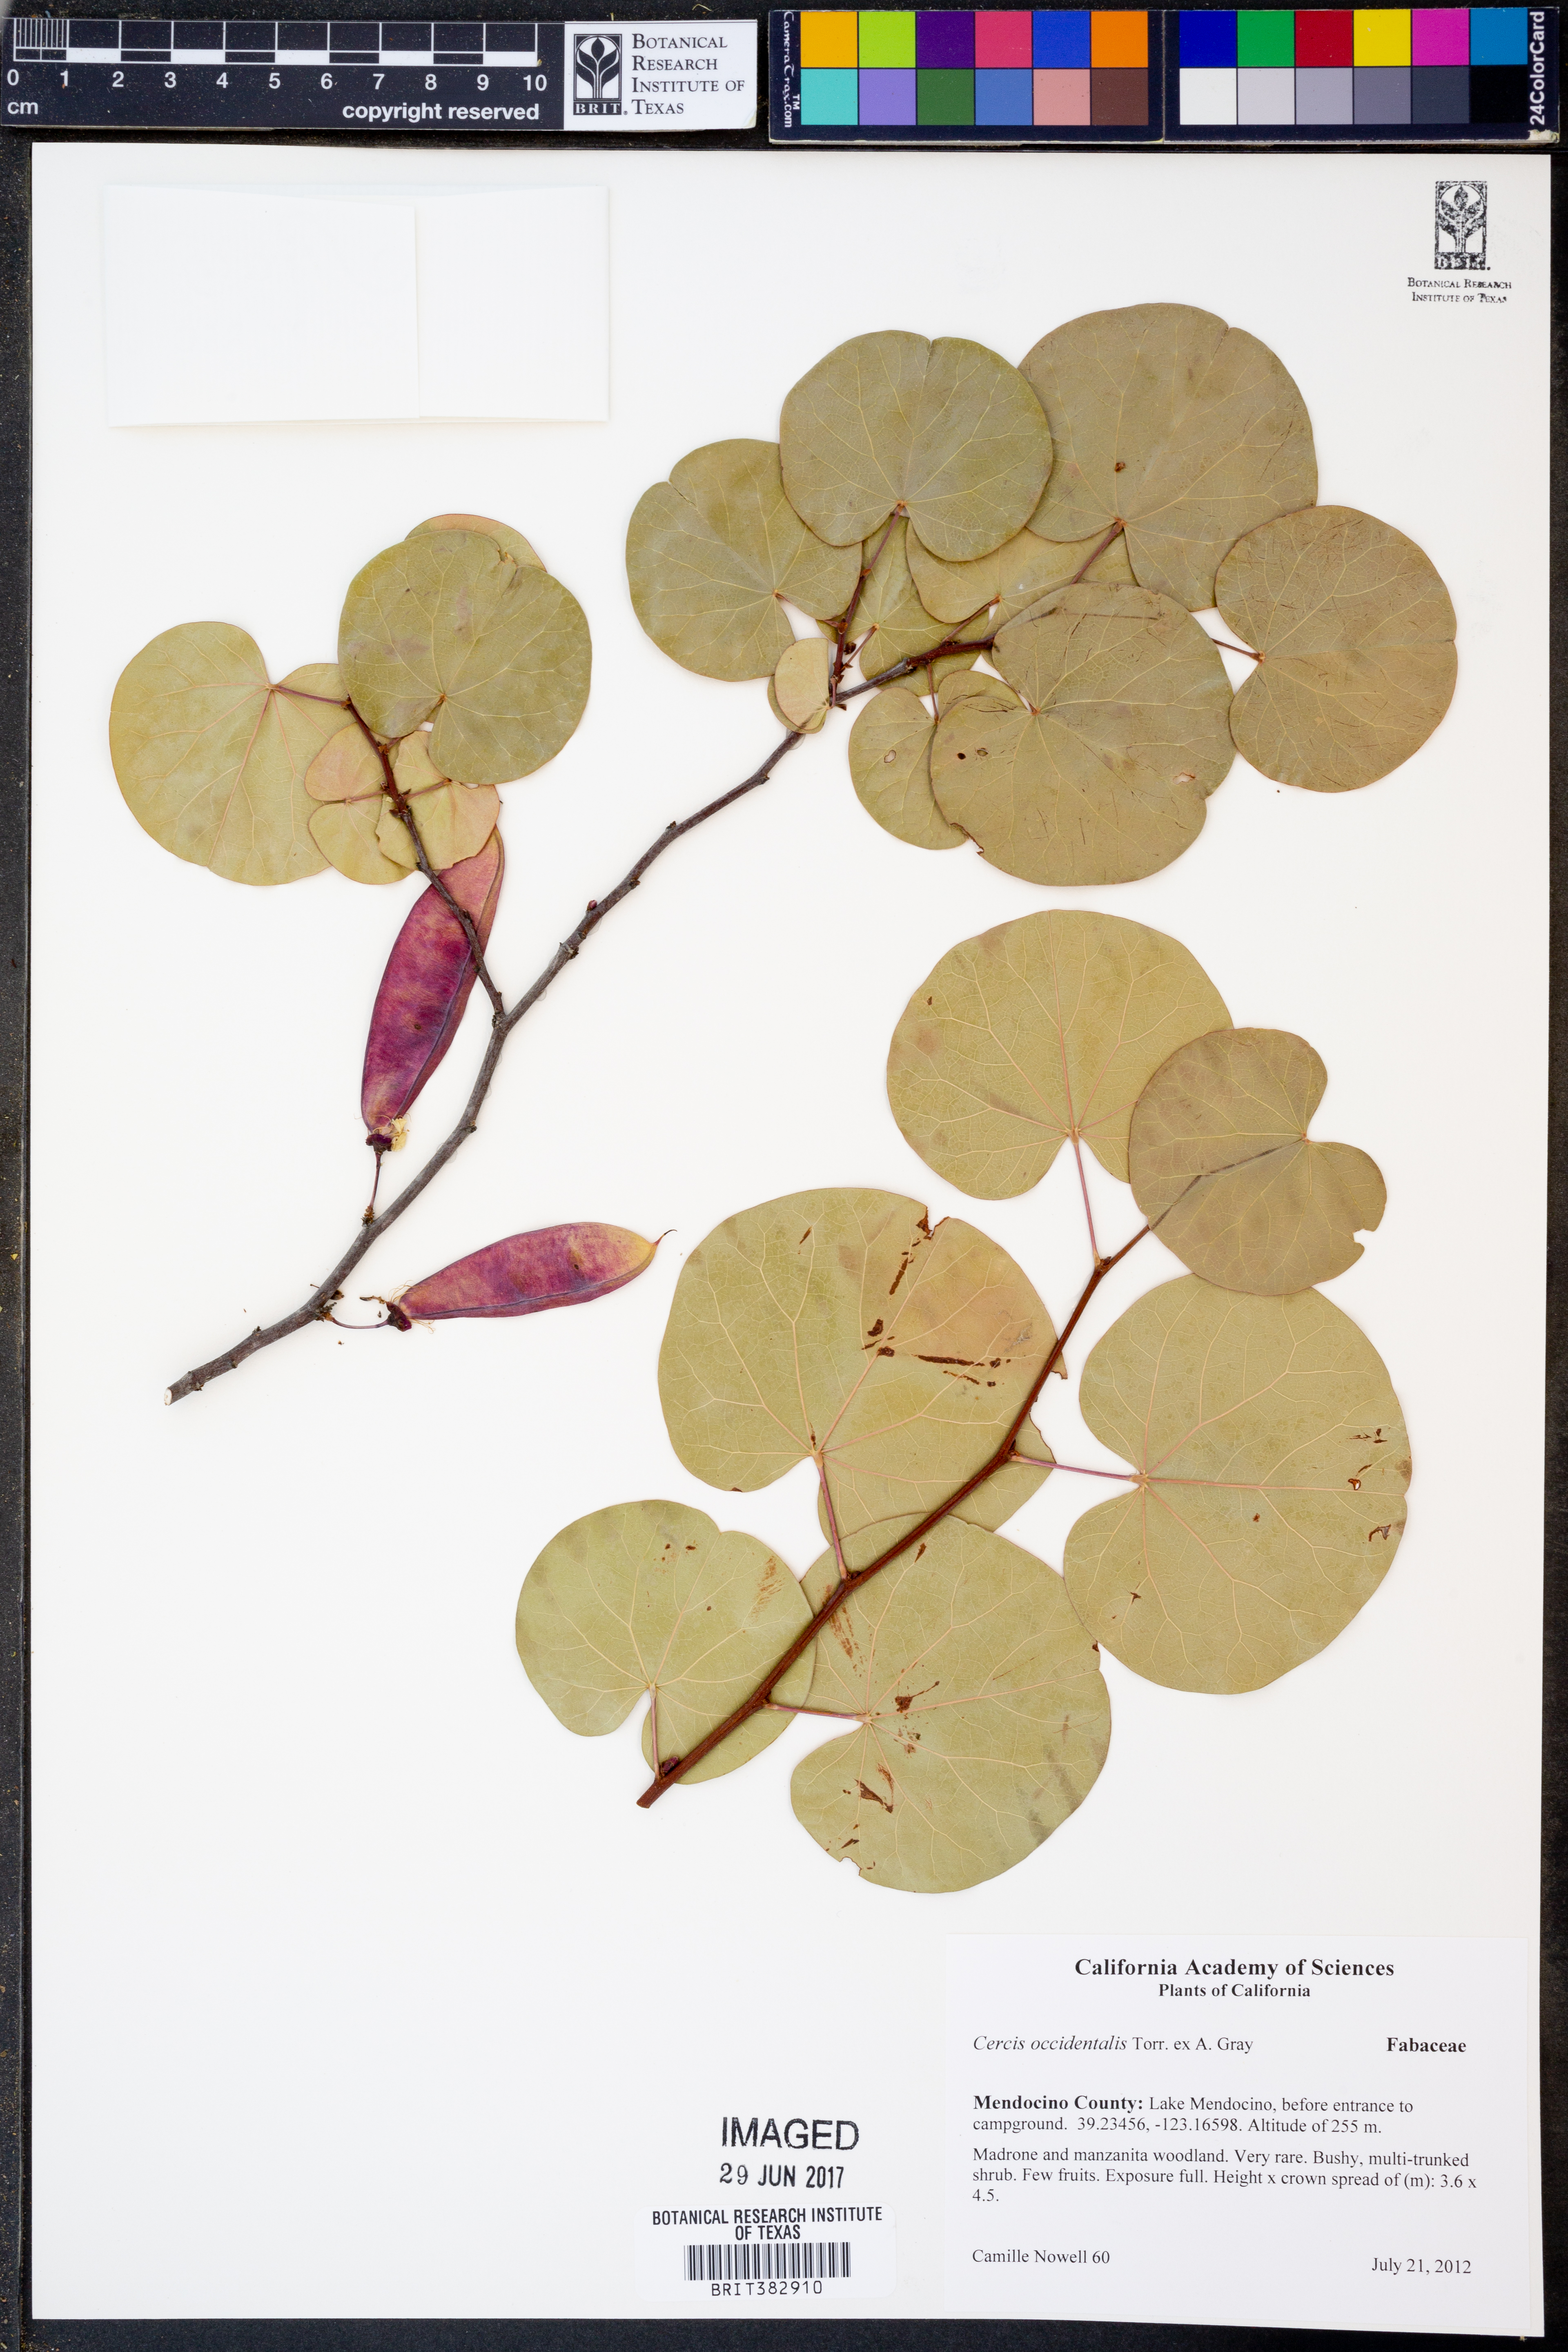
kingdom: Plantae
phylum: Tracheophyta
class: Magnoliopsida
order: Fabales
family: Fabaceae
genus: Cercis
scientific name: Cercis occidentalis
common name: California redbud
